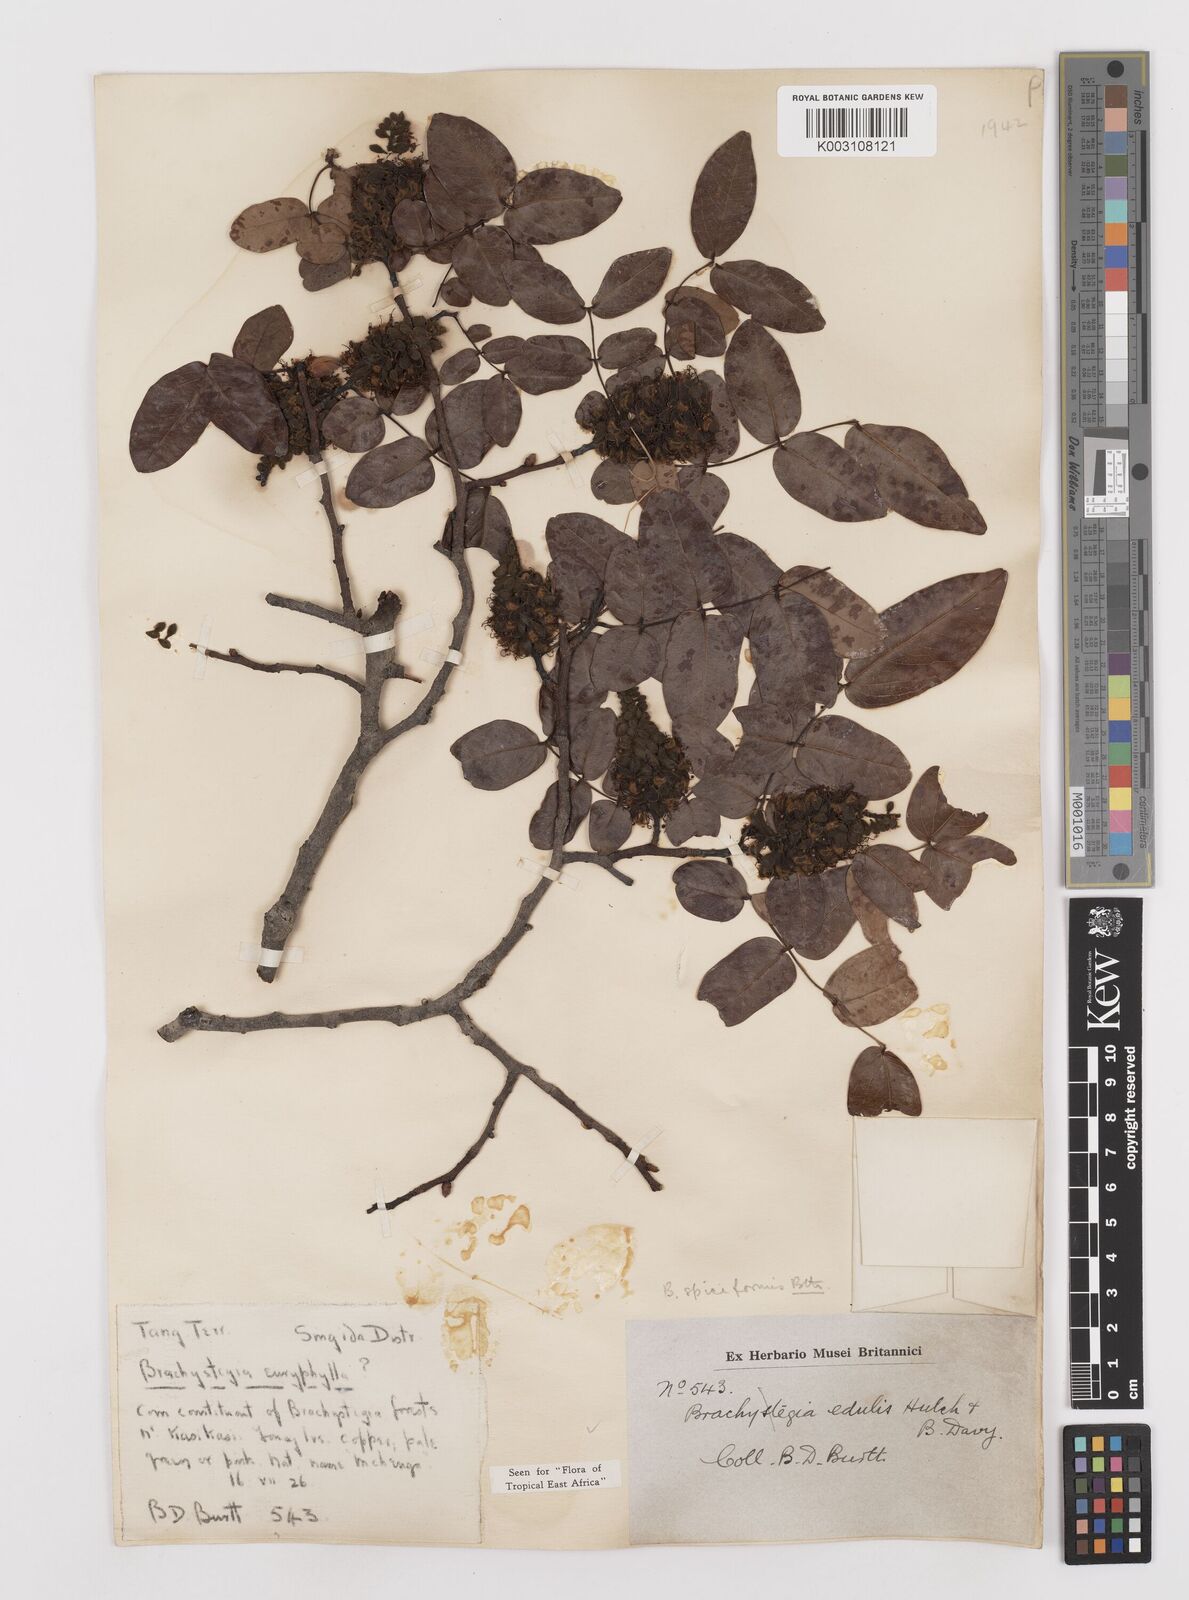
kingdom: Plantae
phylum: Tracheophyta
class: Magnoliopsida
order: Fabales
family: Fabaceae
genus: Brachystegia
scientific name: Brachystegia spiciformis
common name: Zebrawood
